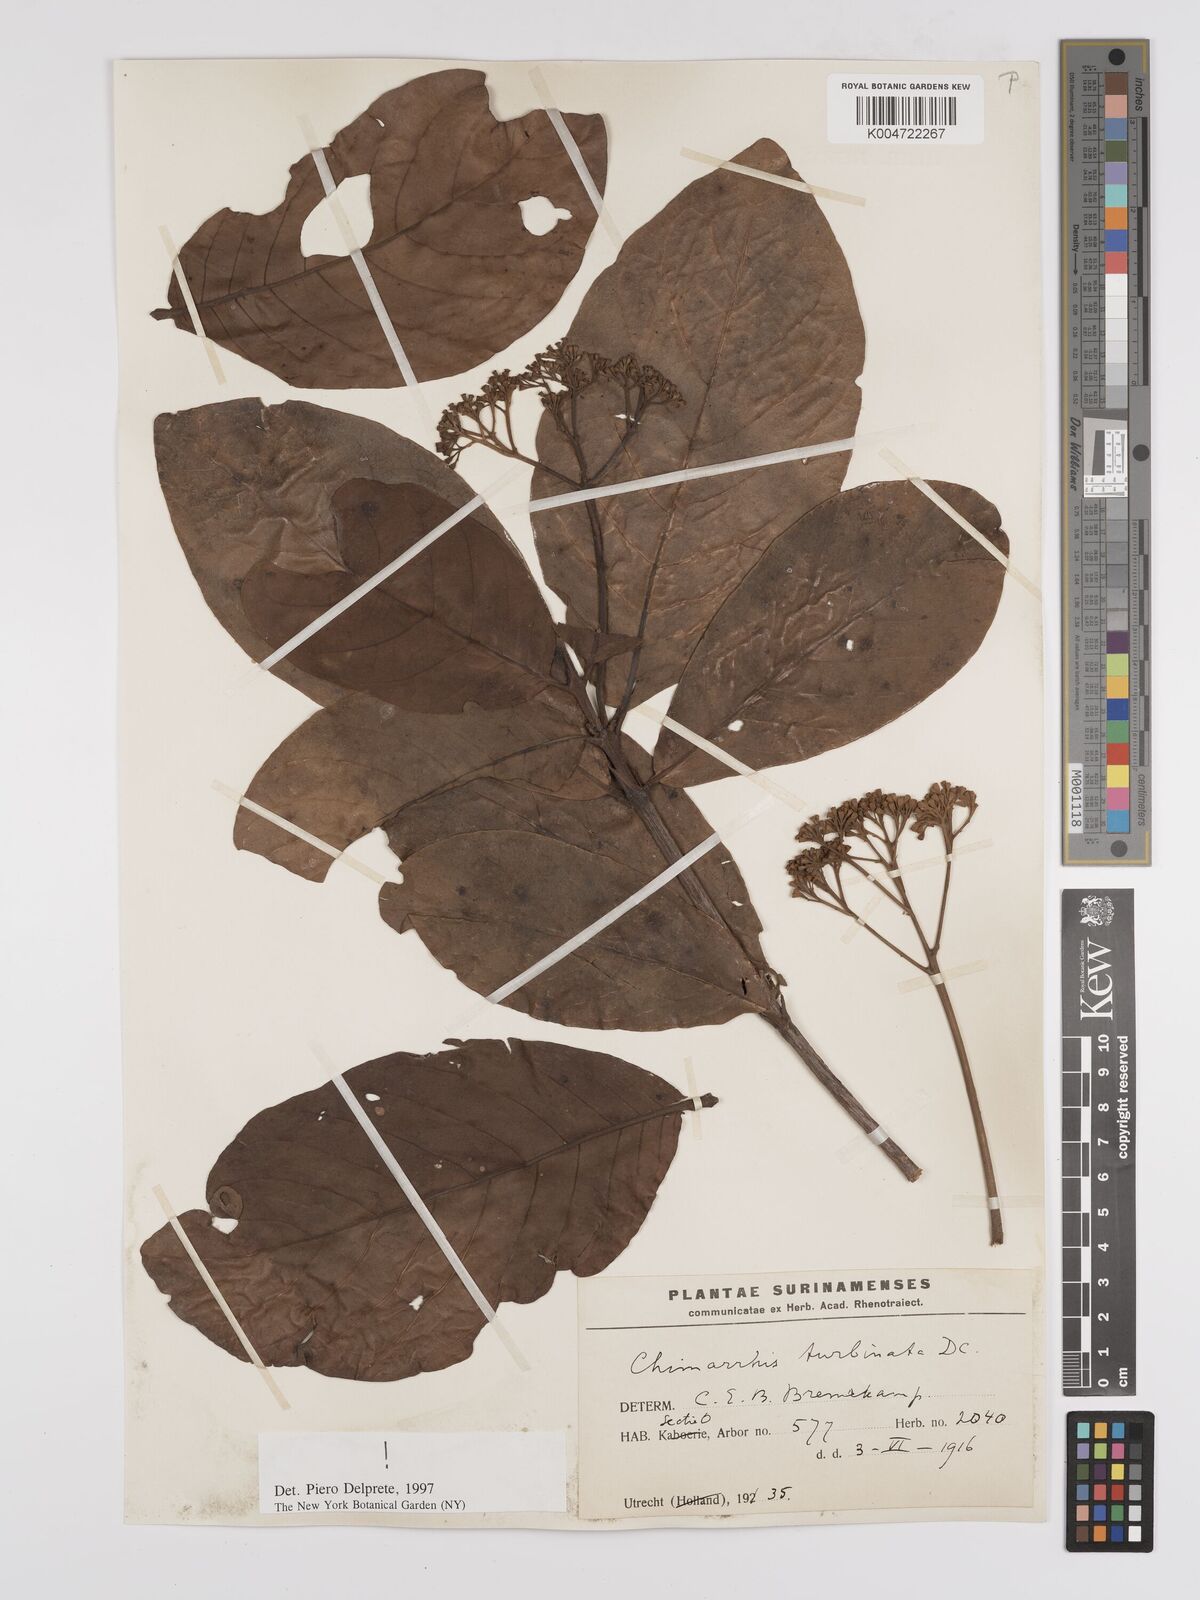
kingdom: Plantae
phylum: Tracheophyta
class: Magnoliopsida
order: Gentianales
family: Rubiaceae
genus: Chimarrhis
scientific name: Chimarrhis turbinata
